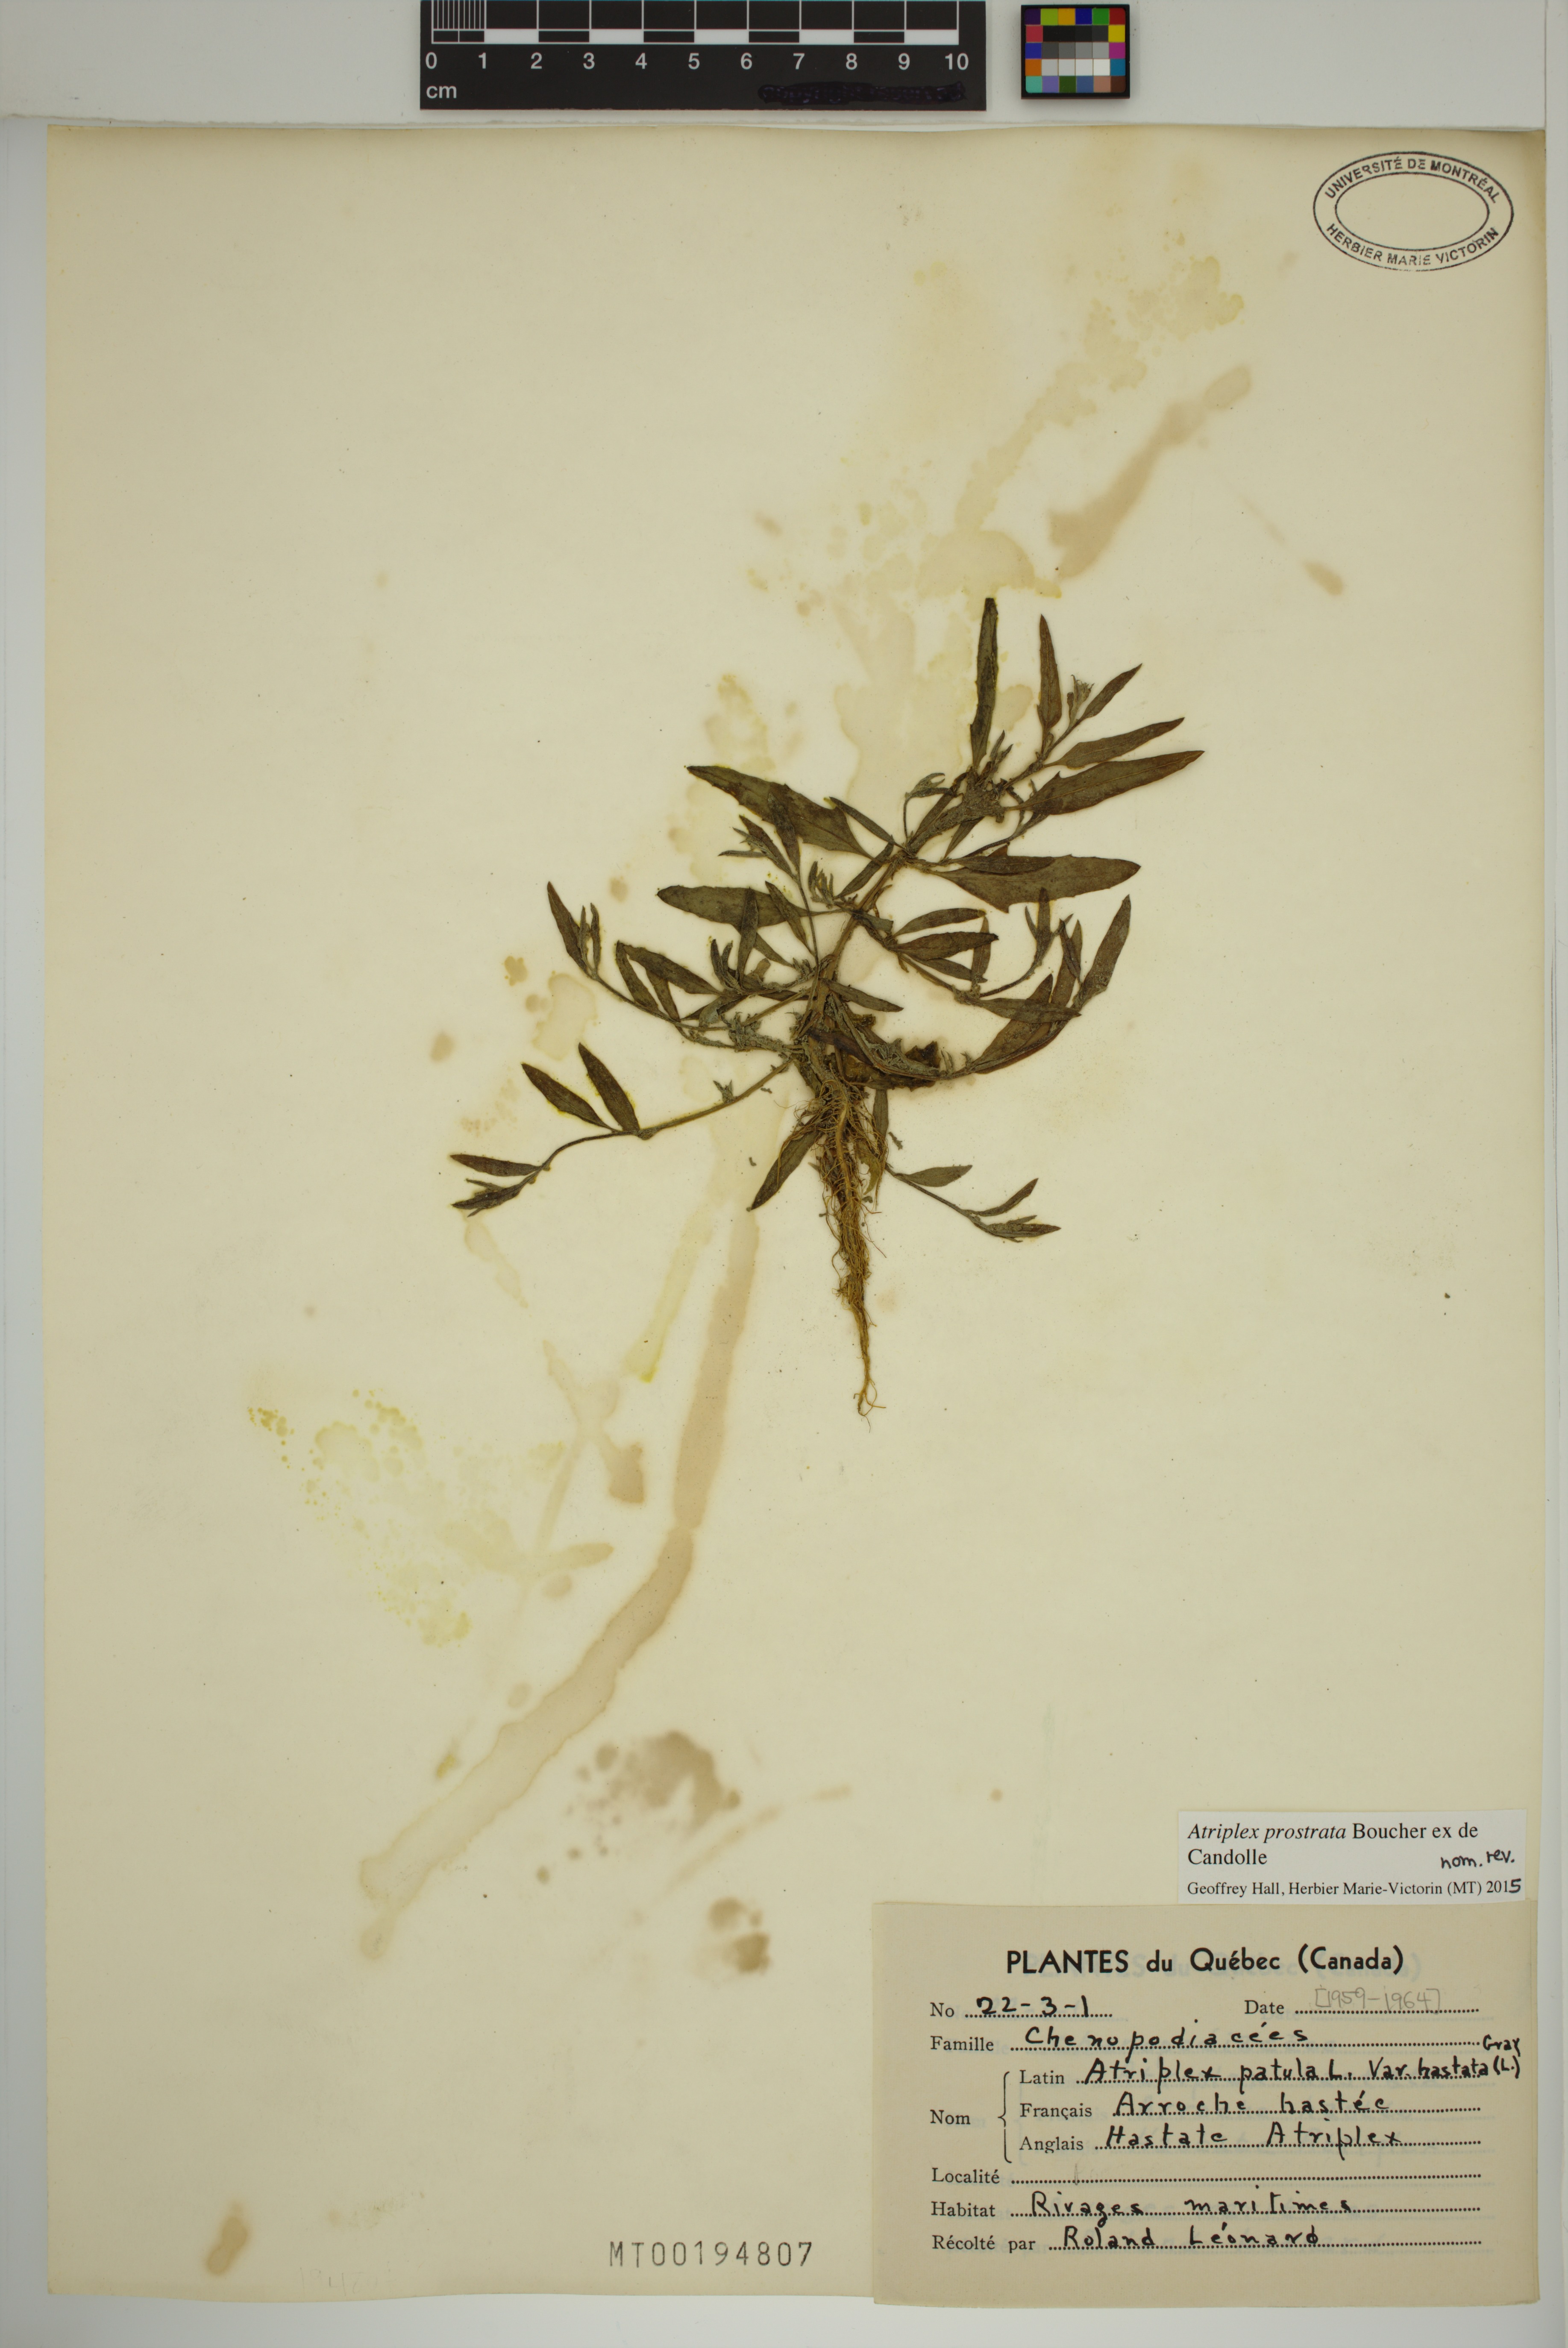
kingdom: Plantae
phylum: Tracheophyta
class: Magnoliopsida
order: Caryophyllales
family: Amaranthaceae
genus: Atriplex
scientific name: Atriplex prostrata
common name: Spear-leaved orache
